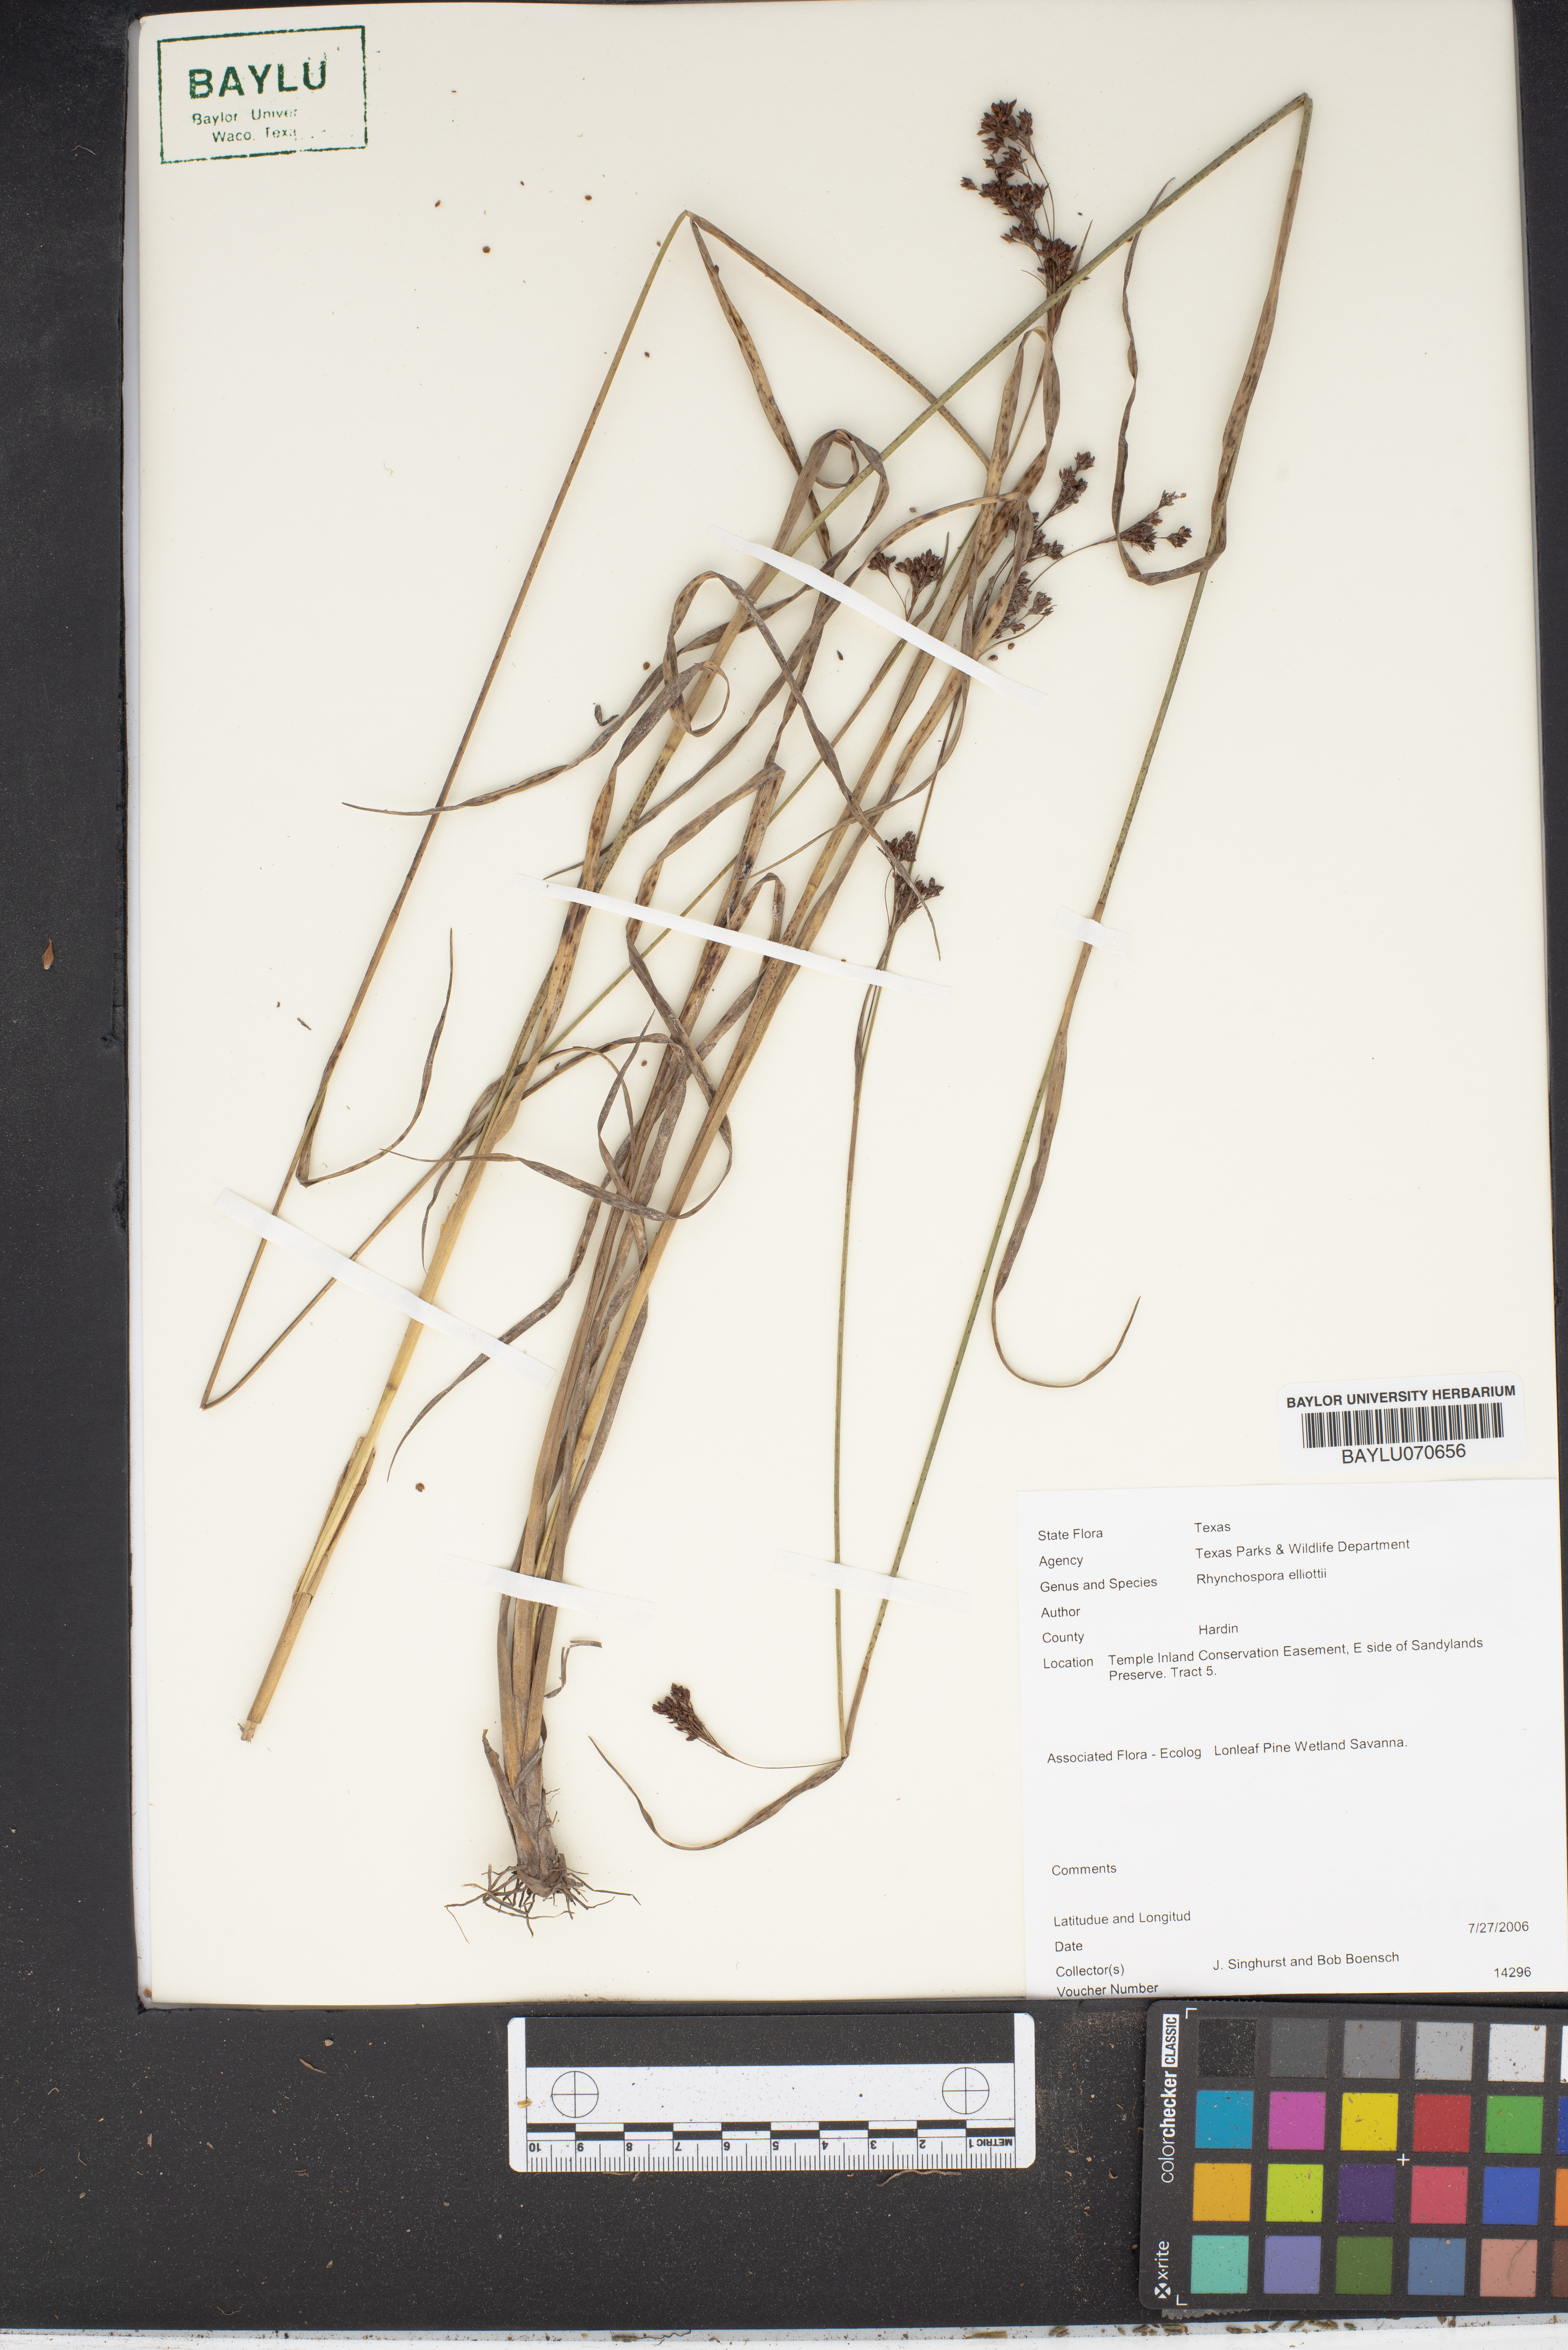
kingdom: Plantae
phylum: Tracheophyta
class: Liliopsida
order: Poales
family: Cyperaceae
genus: Rhynchospora
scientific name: Rhynchospora elliottii
